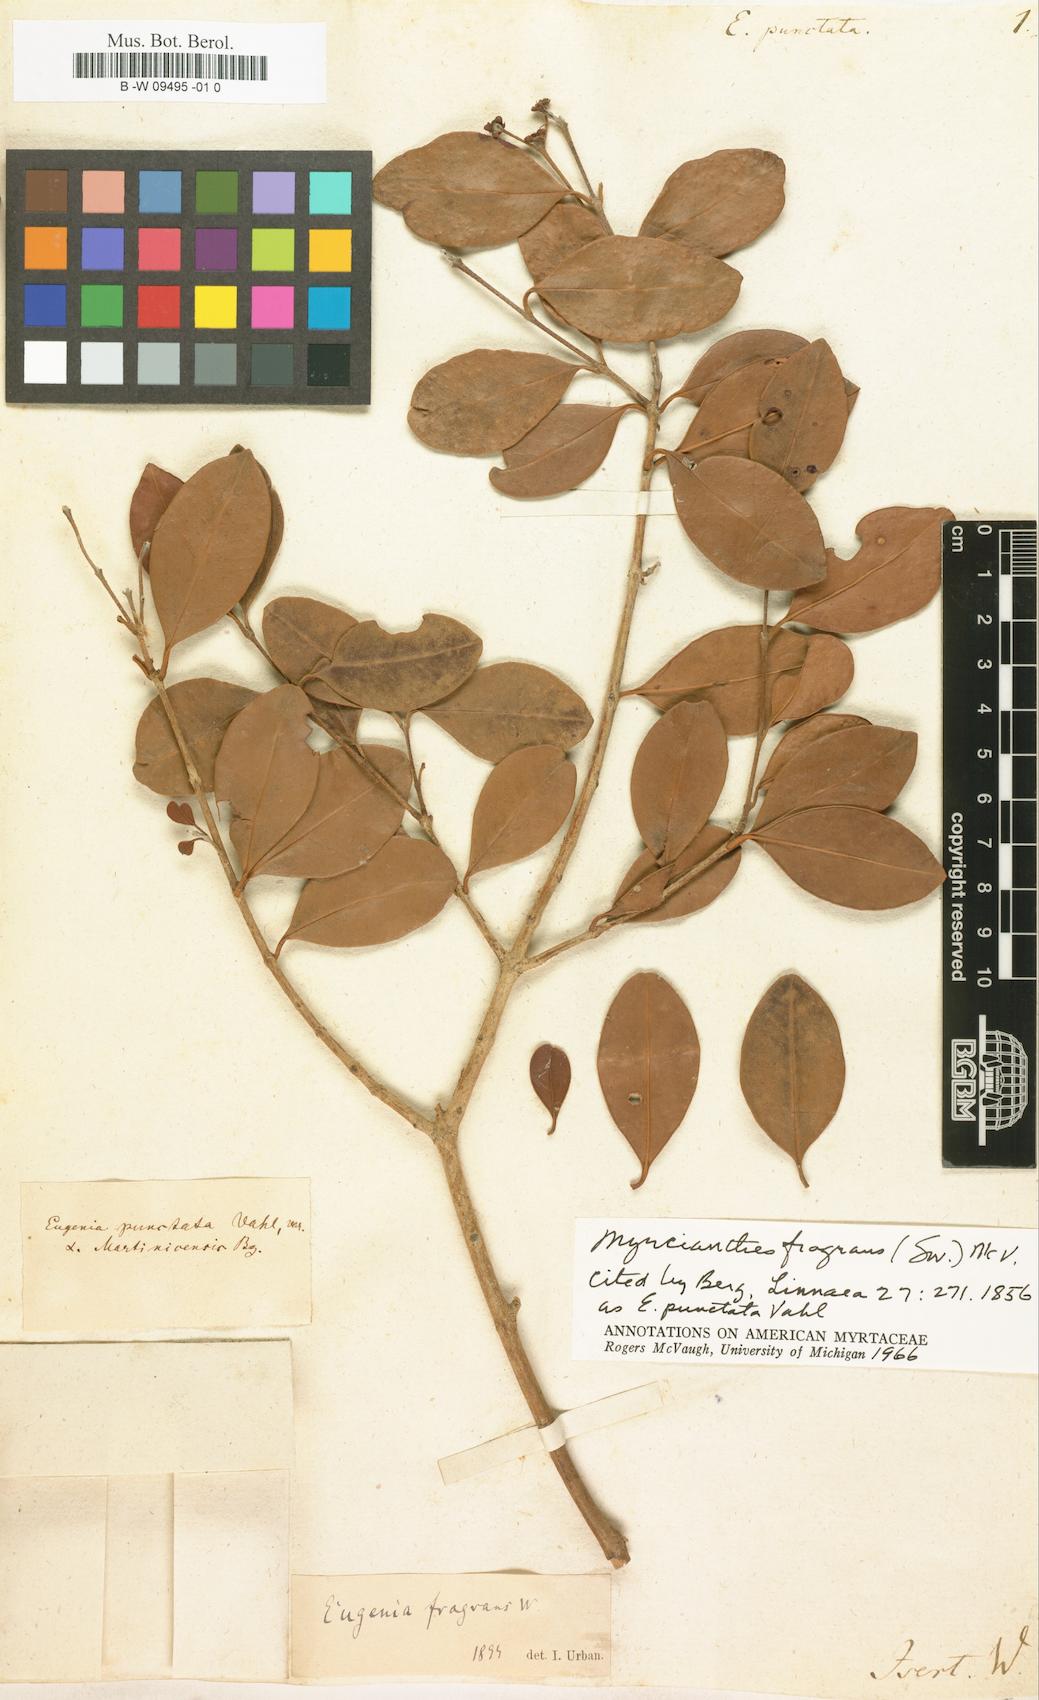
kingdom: Plantae
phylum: Tracheophyta
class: Magnoliopsida
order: Myrtales
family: Myrtaceae
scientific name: Myrtaceae
